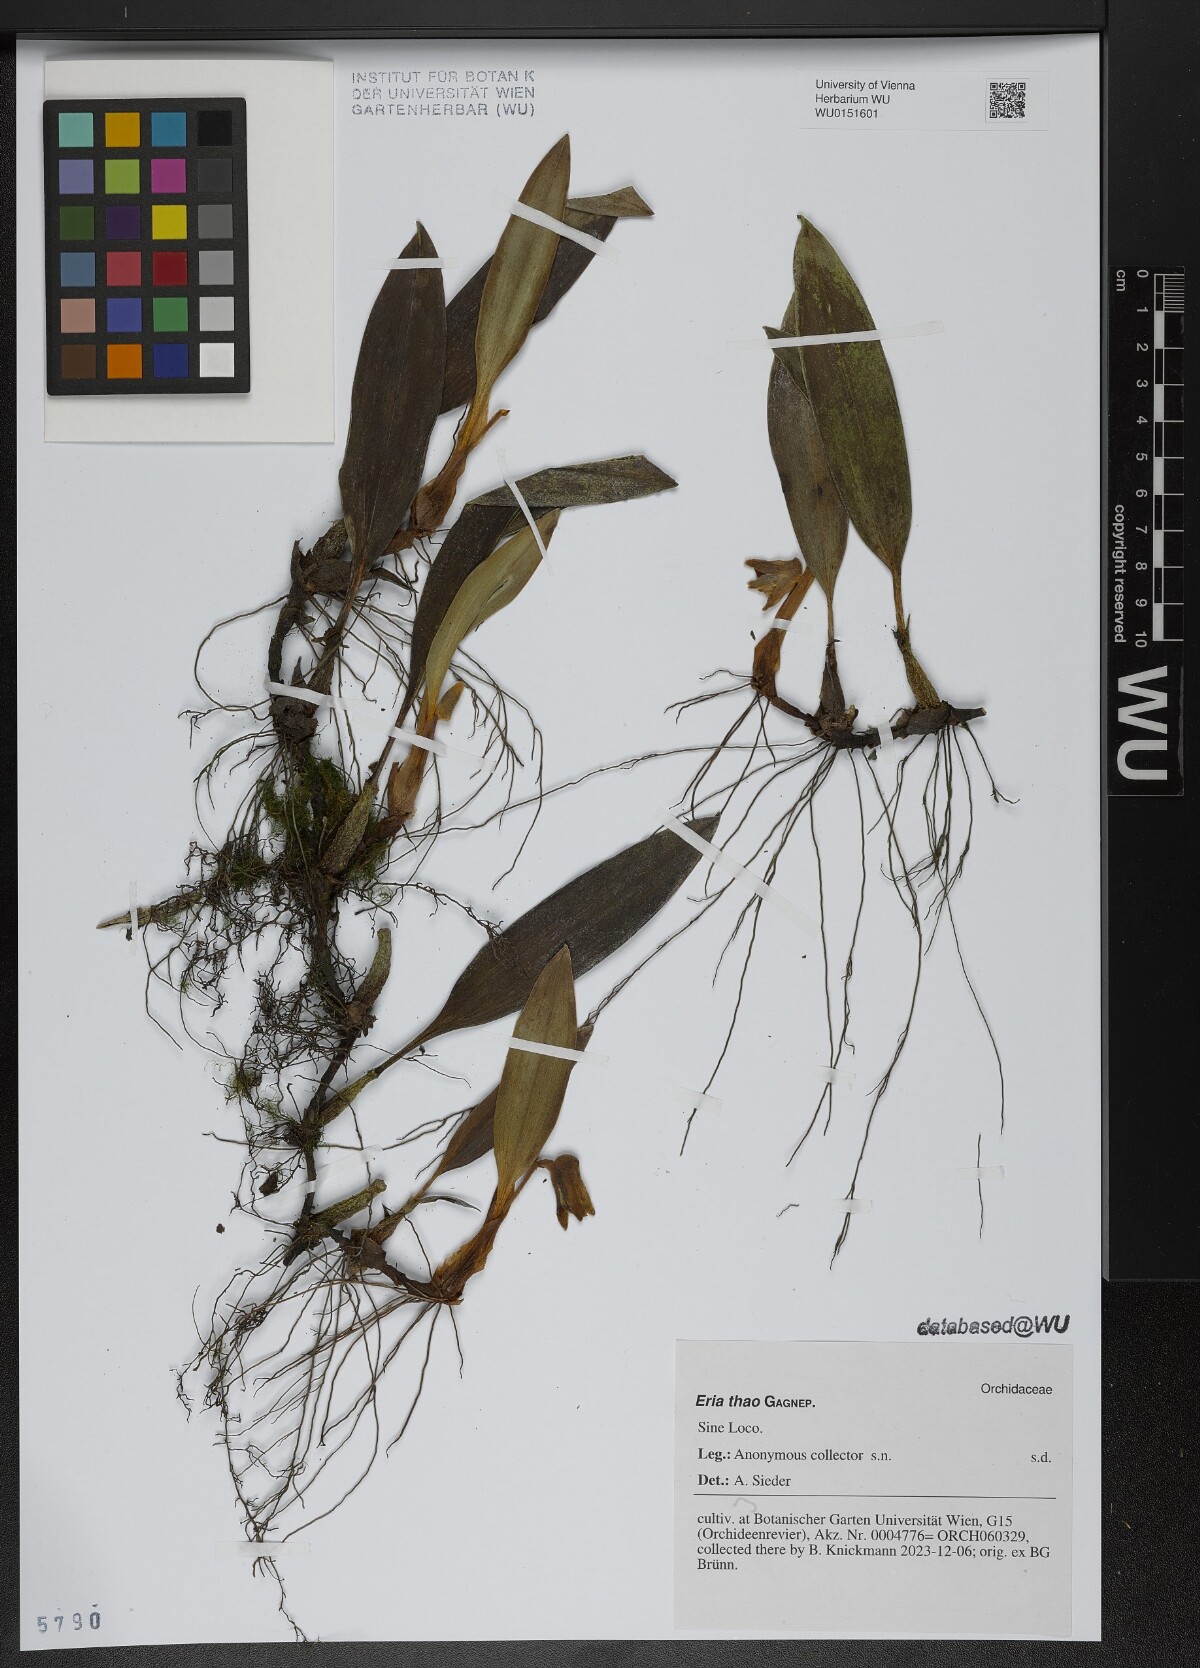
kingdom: Plantae
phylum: Tracheophyta
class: Liliopsida
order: Asparagales
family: Orchidaceae
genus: Campanulorchis
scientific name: Campanulorchis thao
